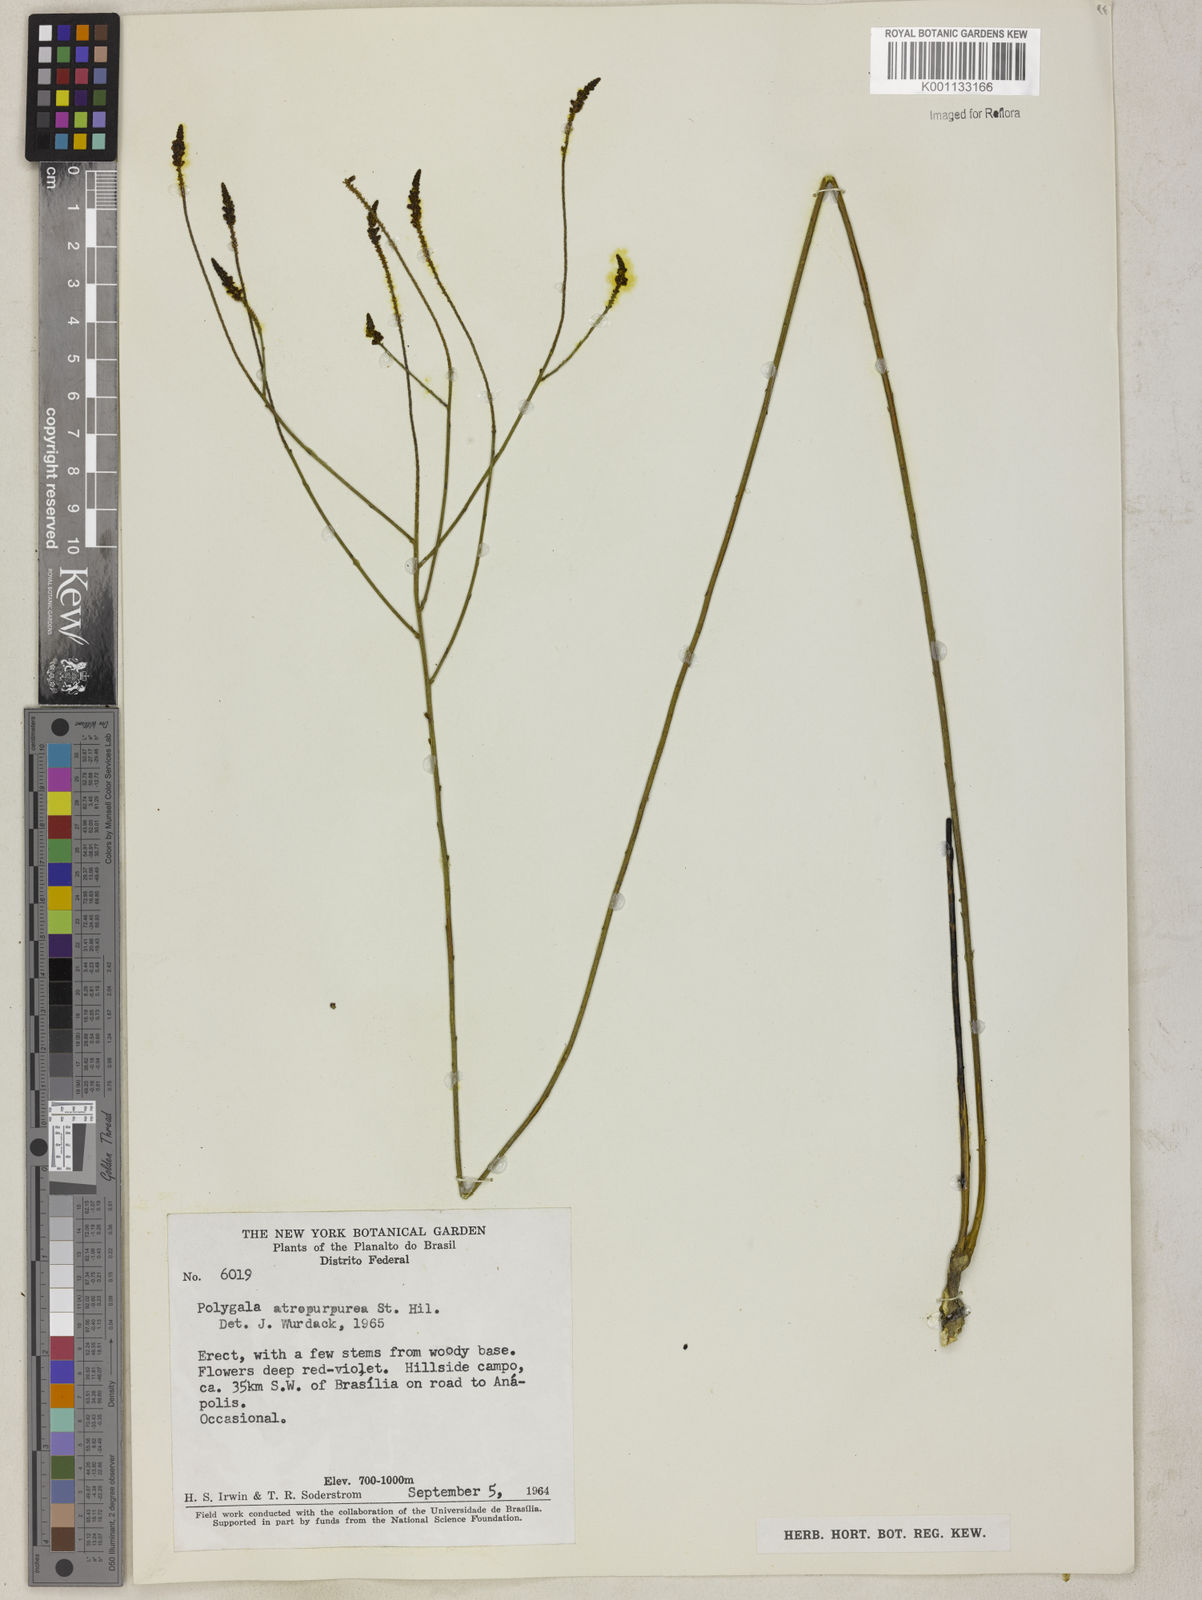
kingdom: Plantae
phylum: Tracheophyta
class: Magnoliopsida
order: Fabales
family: Polygalaceae
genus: Polygala
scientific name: Polygala atropurpurea
